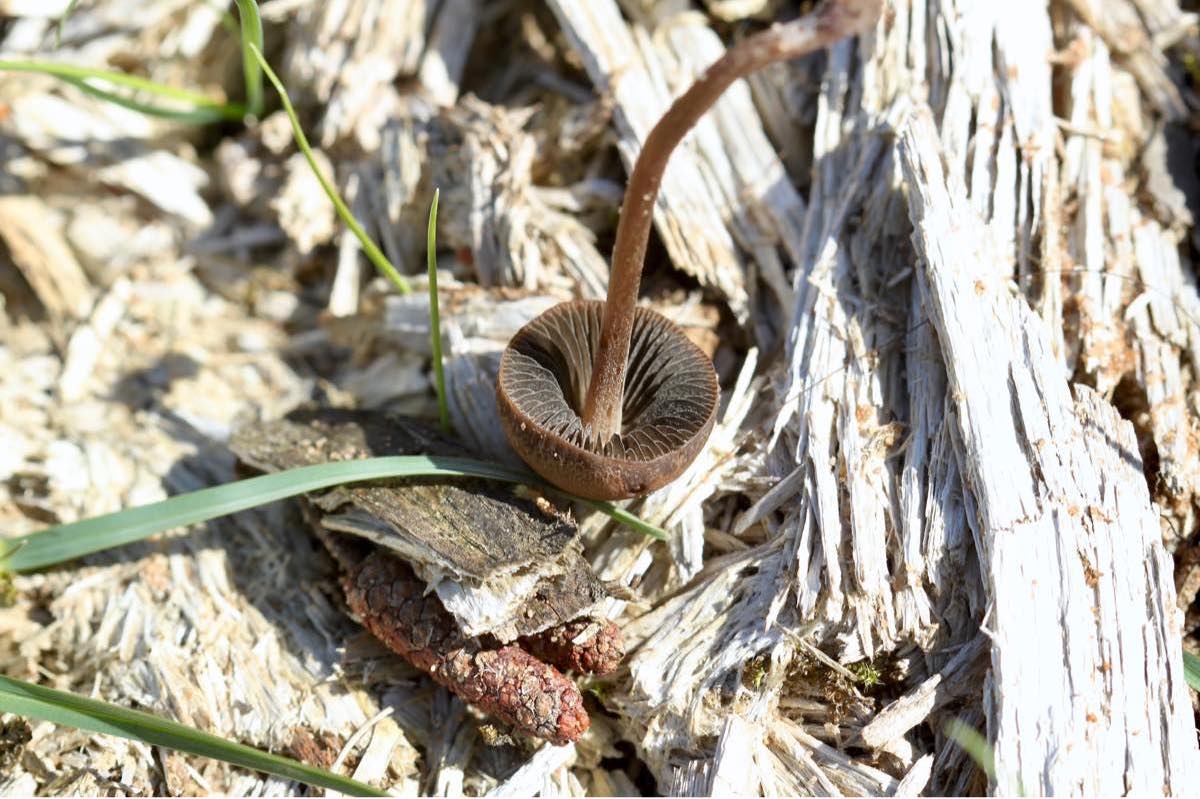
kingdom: Fungi
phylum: Basidiomycota
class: Agaricomycetes
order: Agaricales
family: Bolbitiaceae
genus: Panaeolus
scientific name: Panaeolus fimicola
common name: tidlig glanshat
